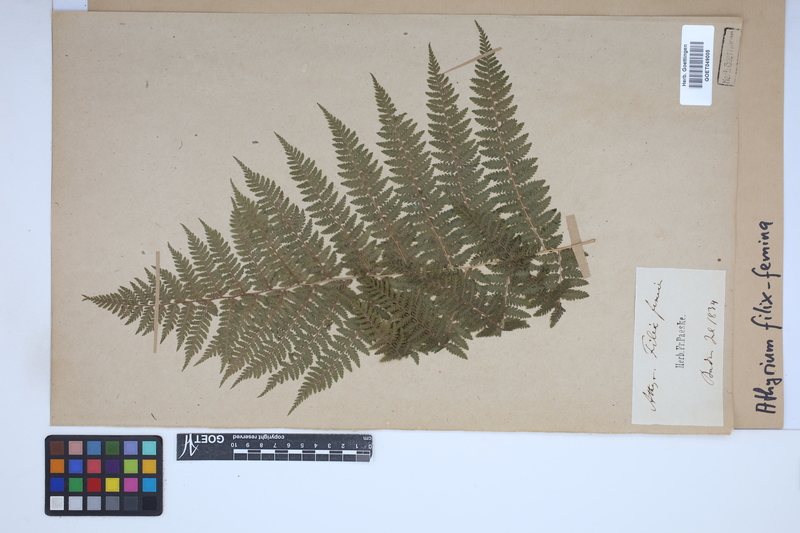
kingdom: Plantae
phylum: Tracheophyta
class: Polypodiopsida
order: Polypodiales
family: Athyriaceae
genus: Athyrium
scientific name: Athyrium filix-femina
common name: Lady fern
